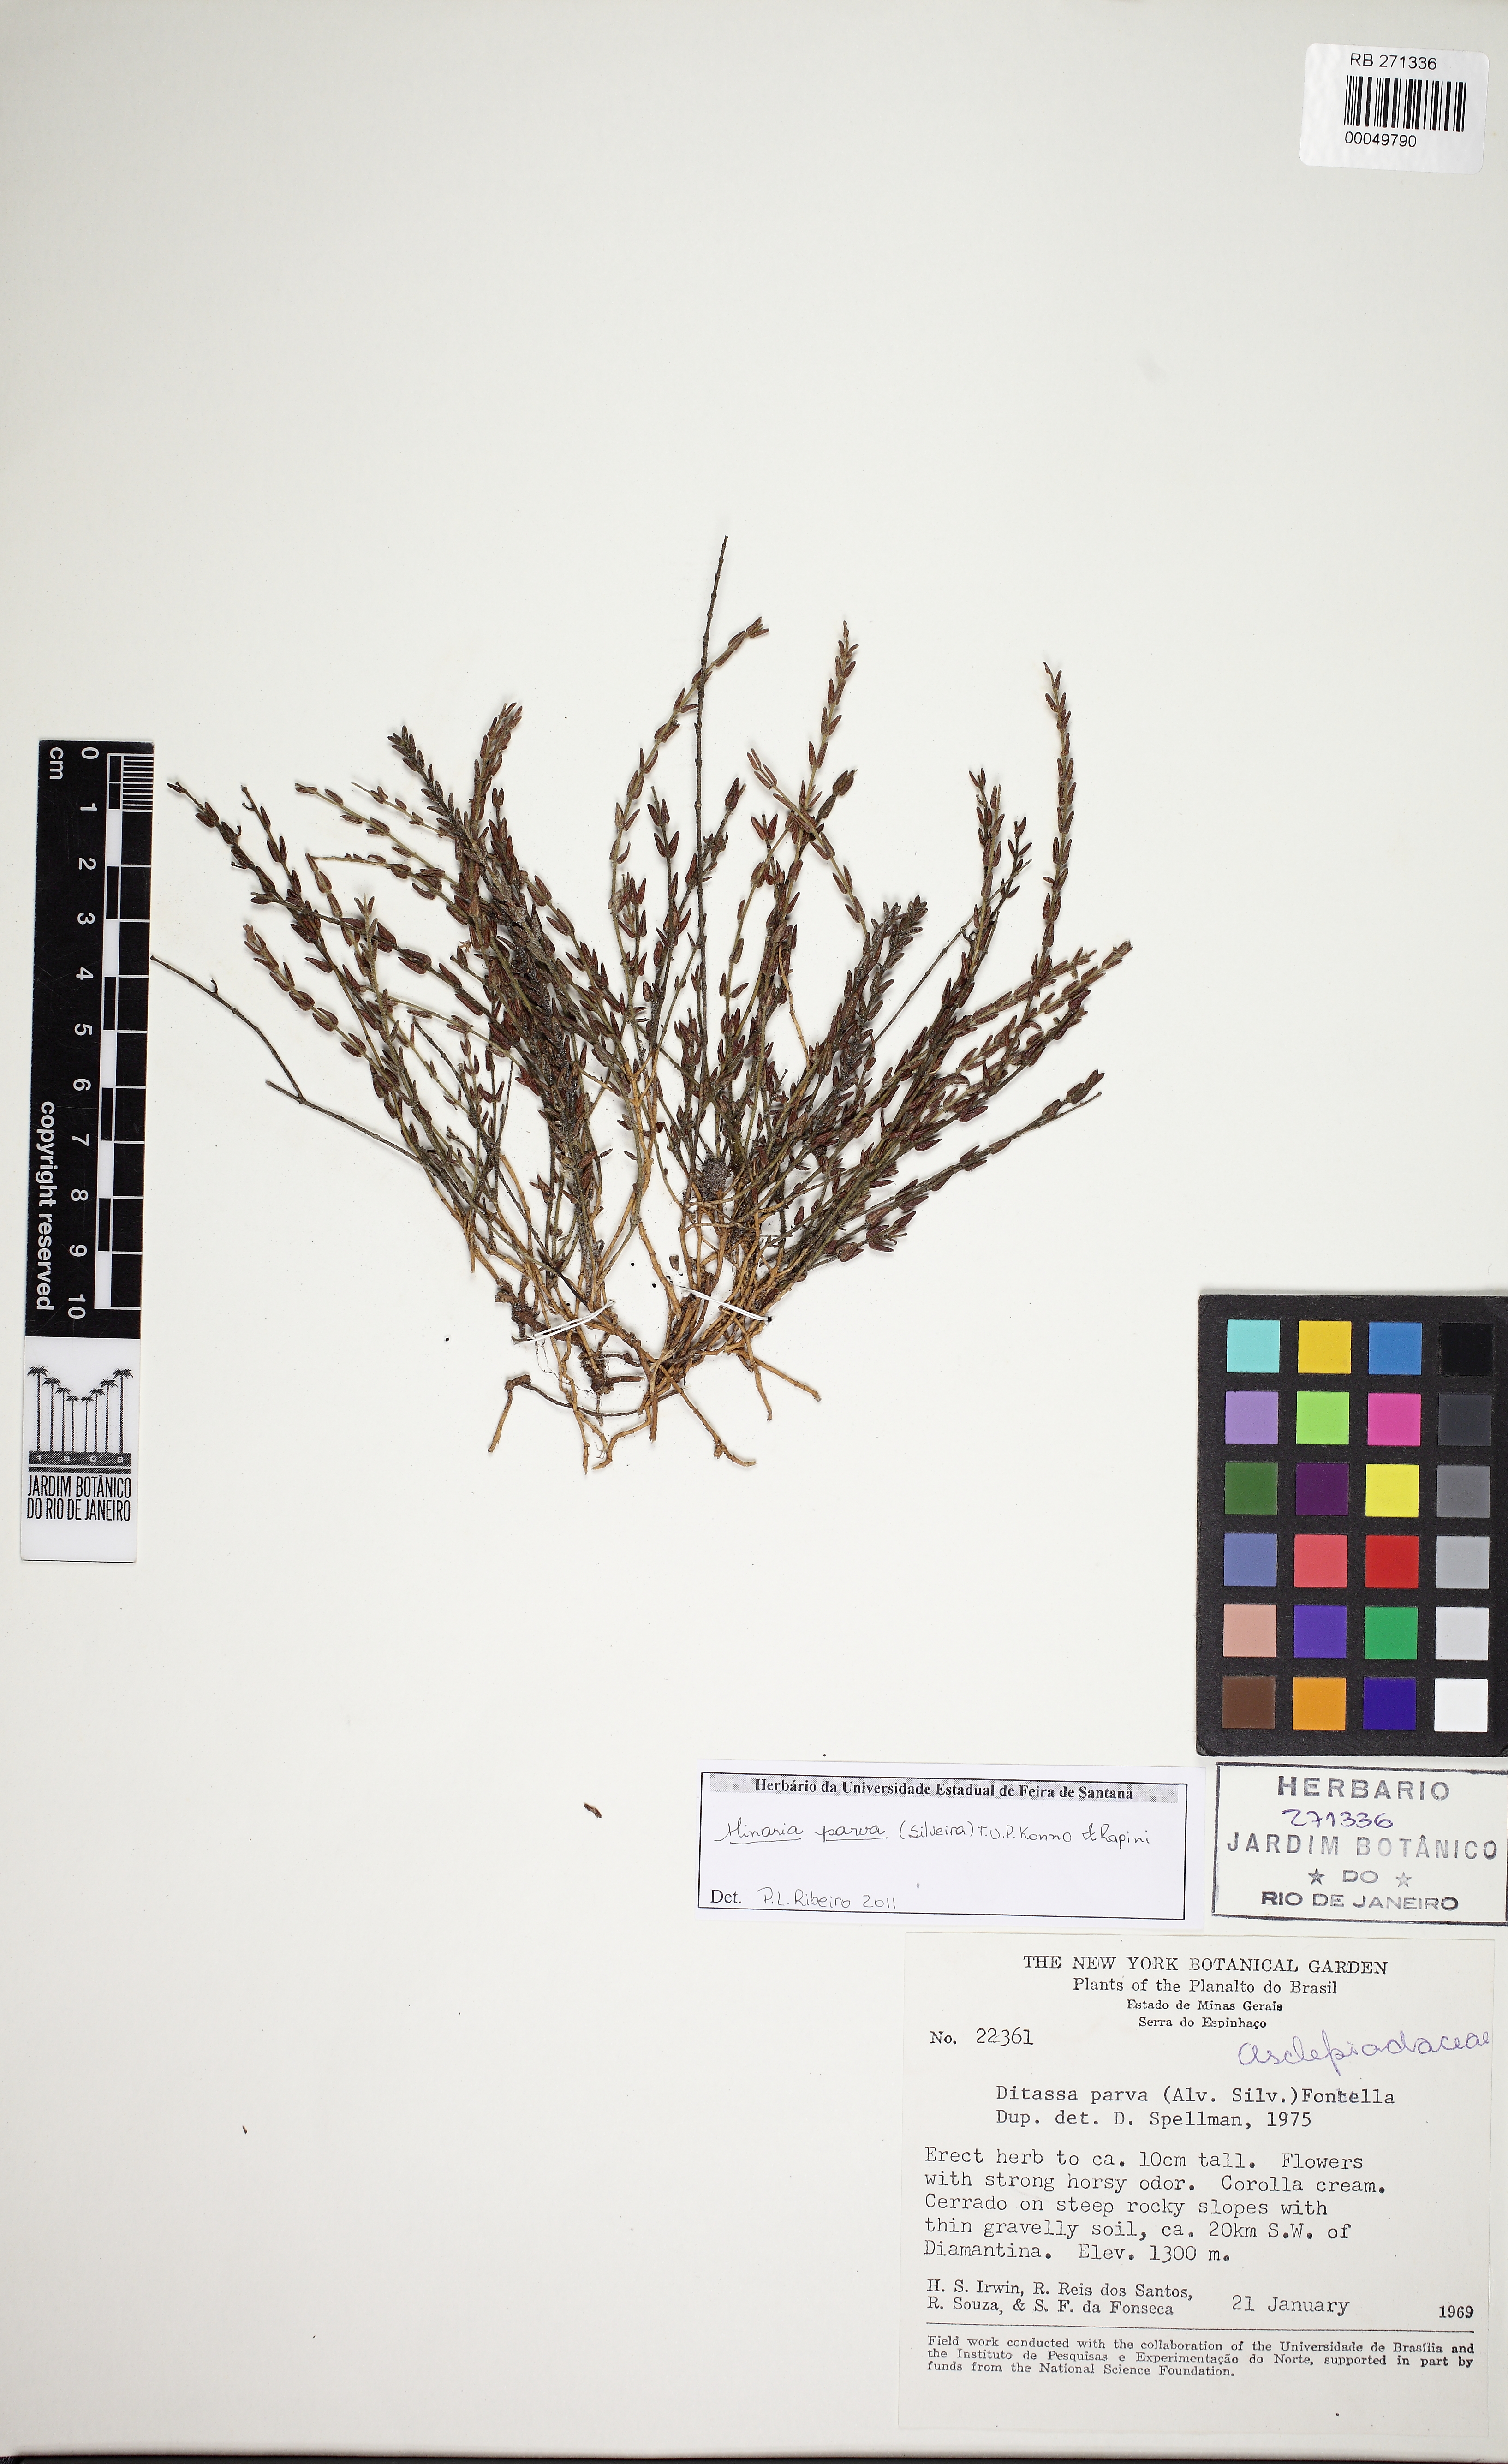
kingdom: Plantae
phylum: Tracheophyta
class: Magnoliopsida
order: Gentianales
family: Apocynaceae
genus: Minaria
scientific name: Minaria decussata
